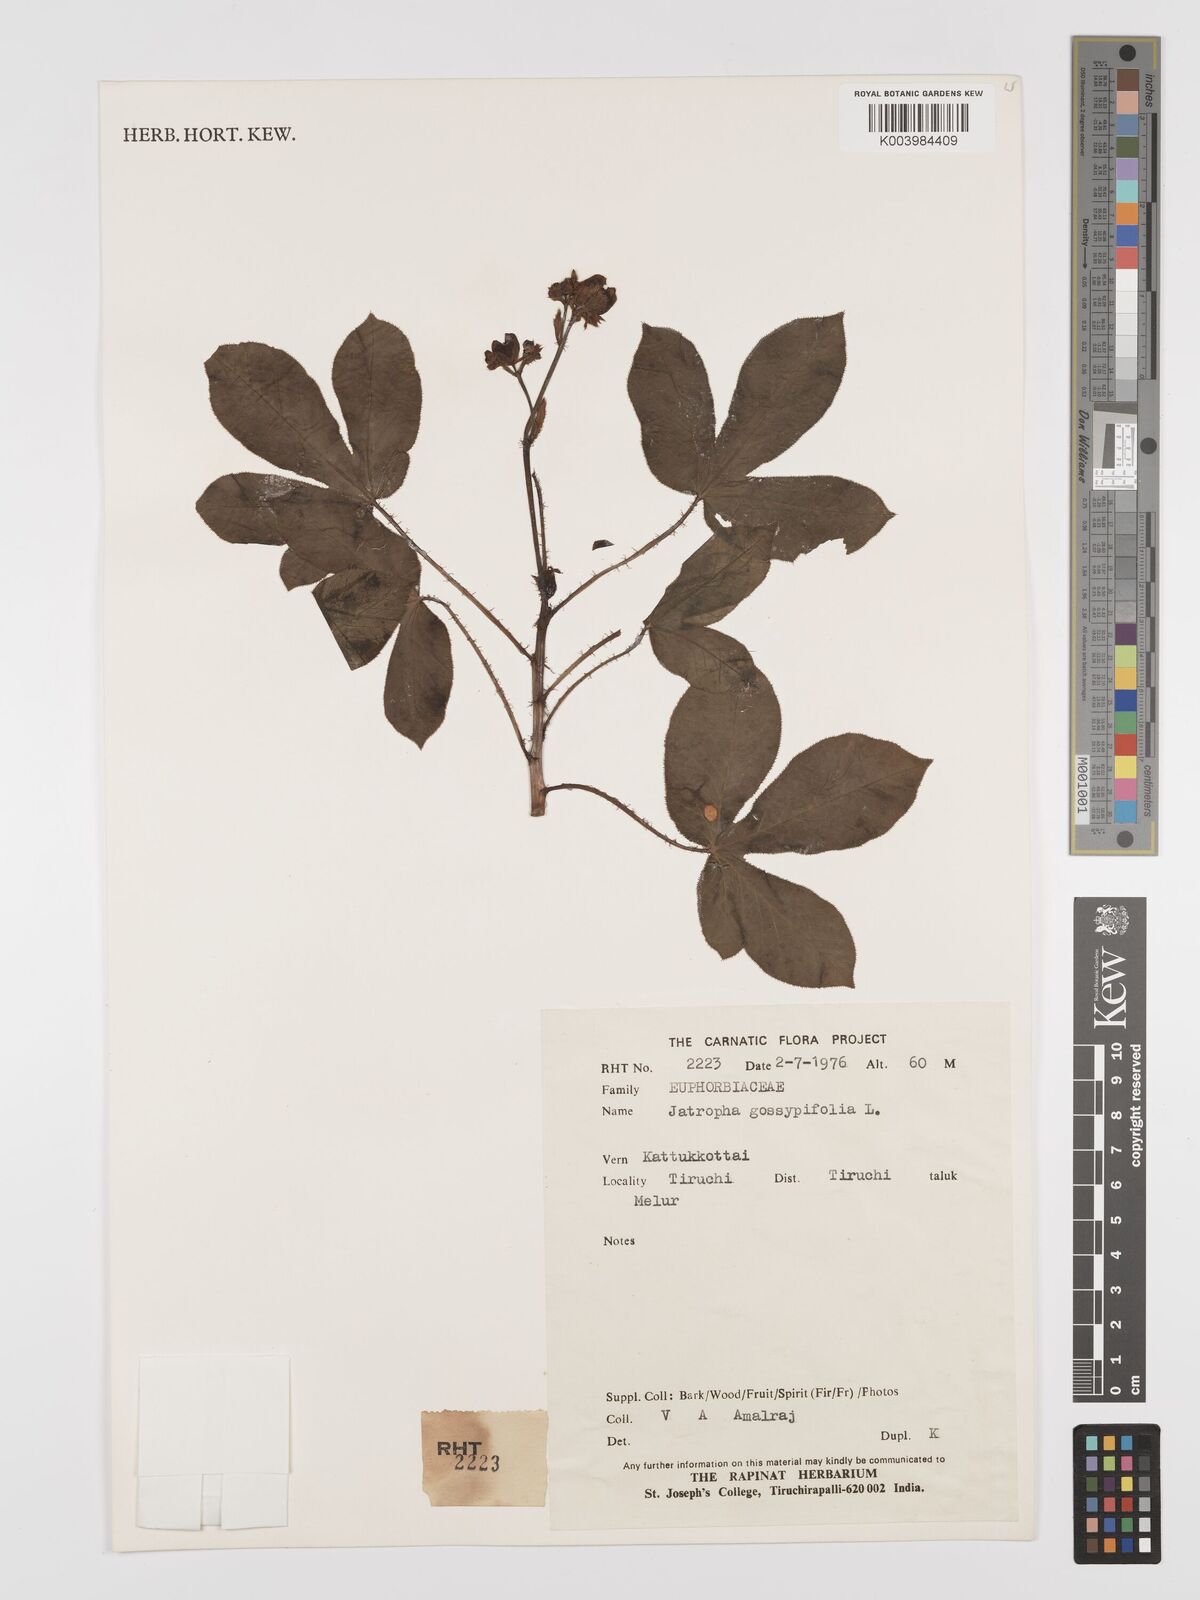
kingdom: Plantae
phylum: Tracheophyta
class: Magnoliopsida
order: Malpighiales
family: Euphorbiaceae
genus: Jatropha
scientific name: Jatropha gossypiifolia
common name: Bellyache bush
